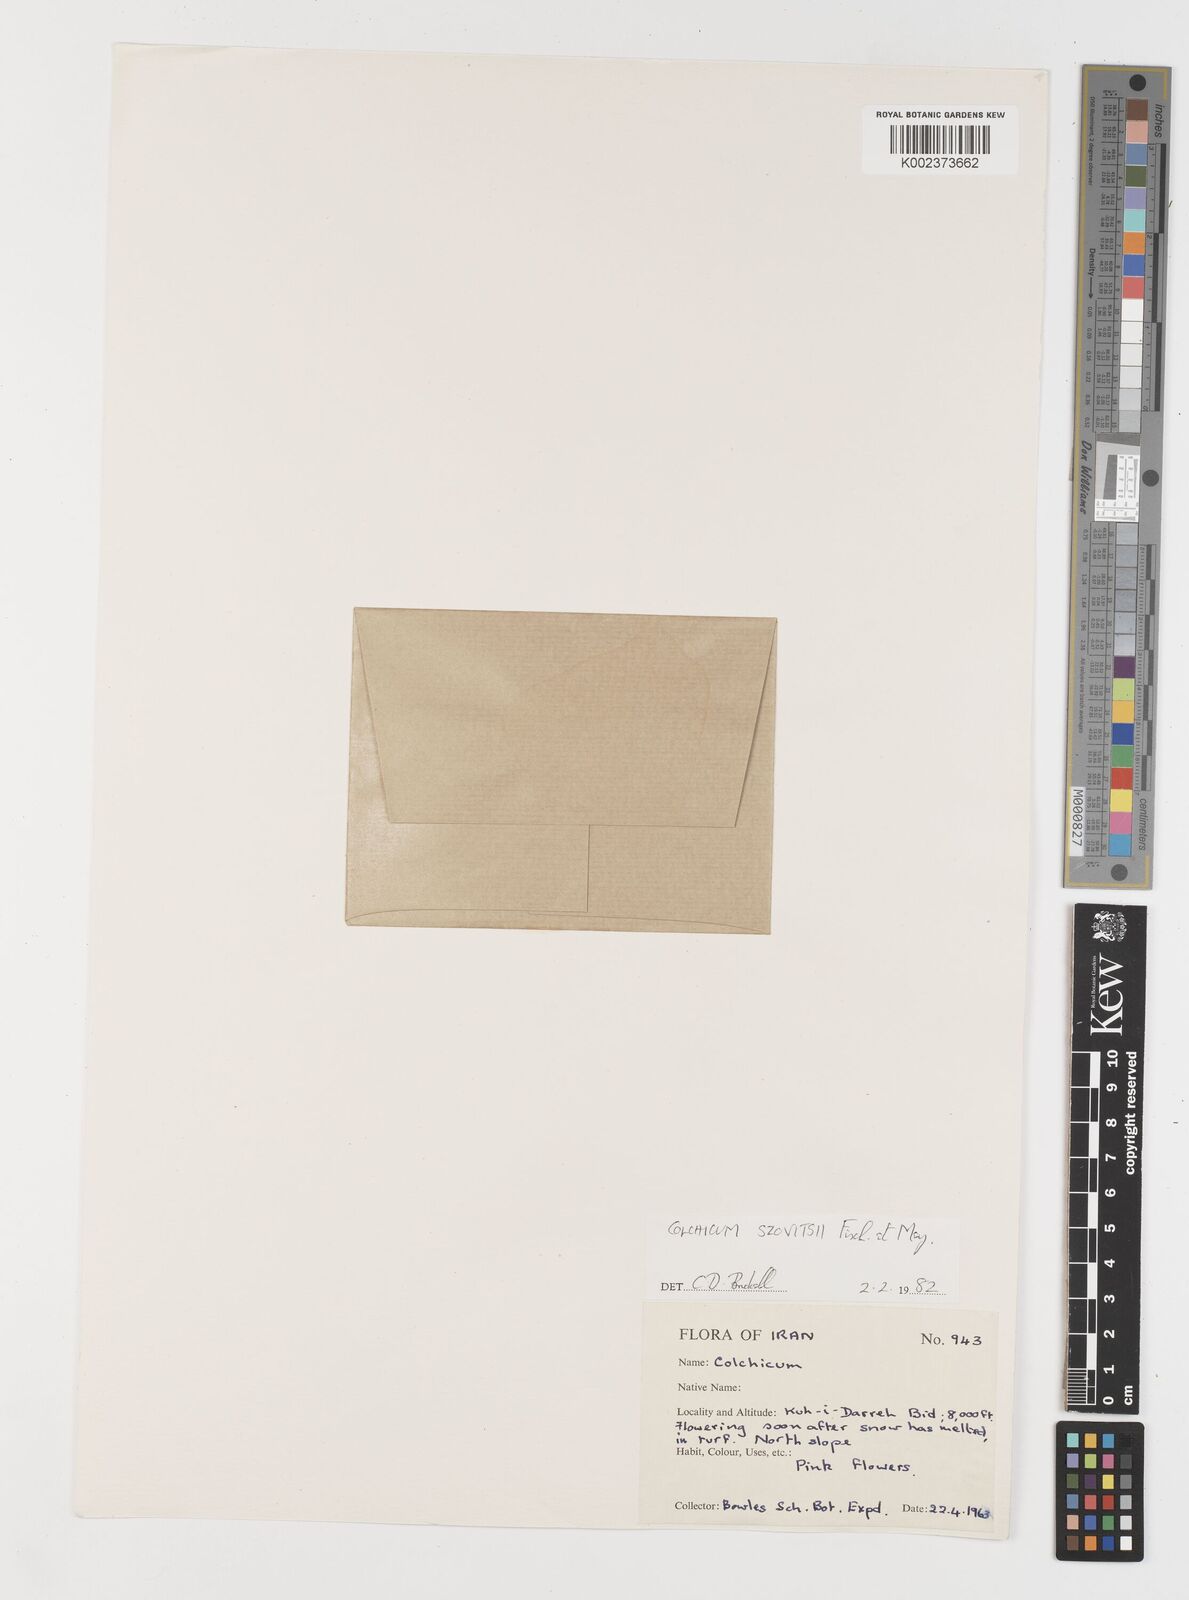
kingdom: Plantae
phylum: Tracheophyta
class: Liliopsida
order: Liliales
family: Colchicaceae
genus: Colchicum
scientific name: Colchicum szovitsii
